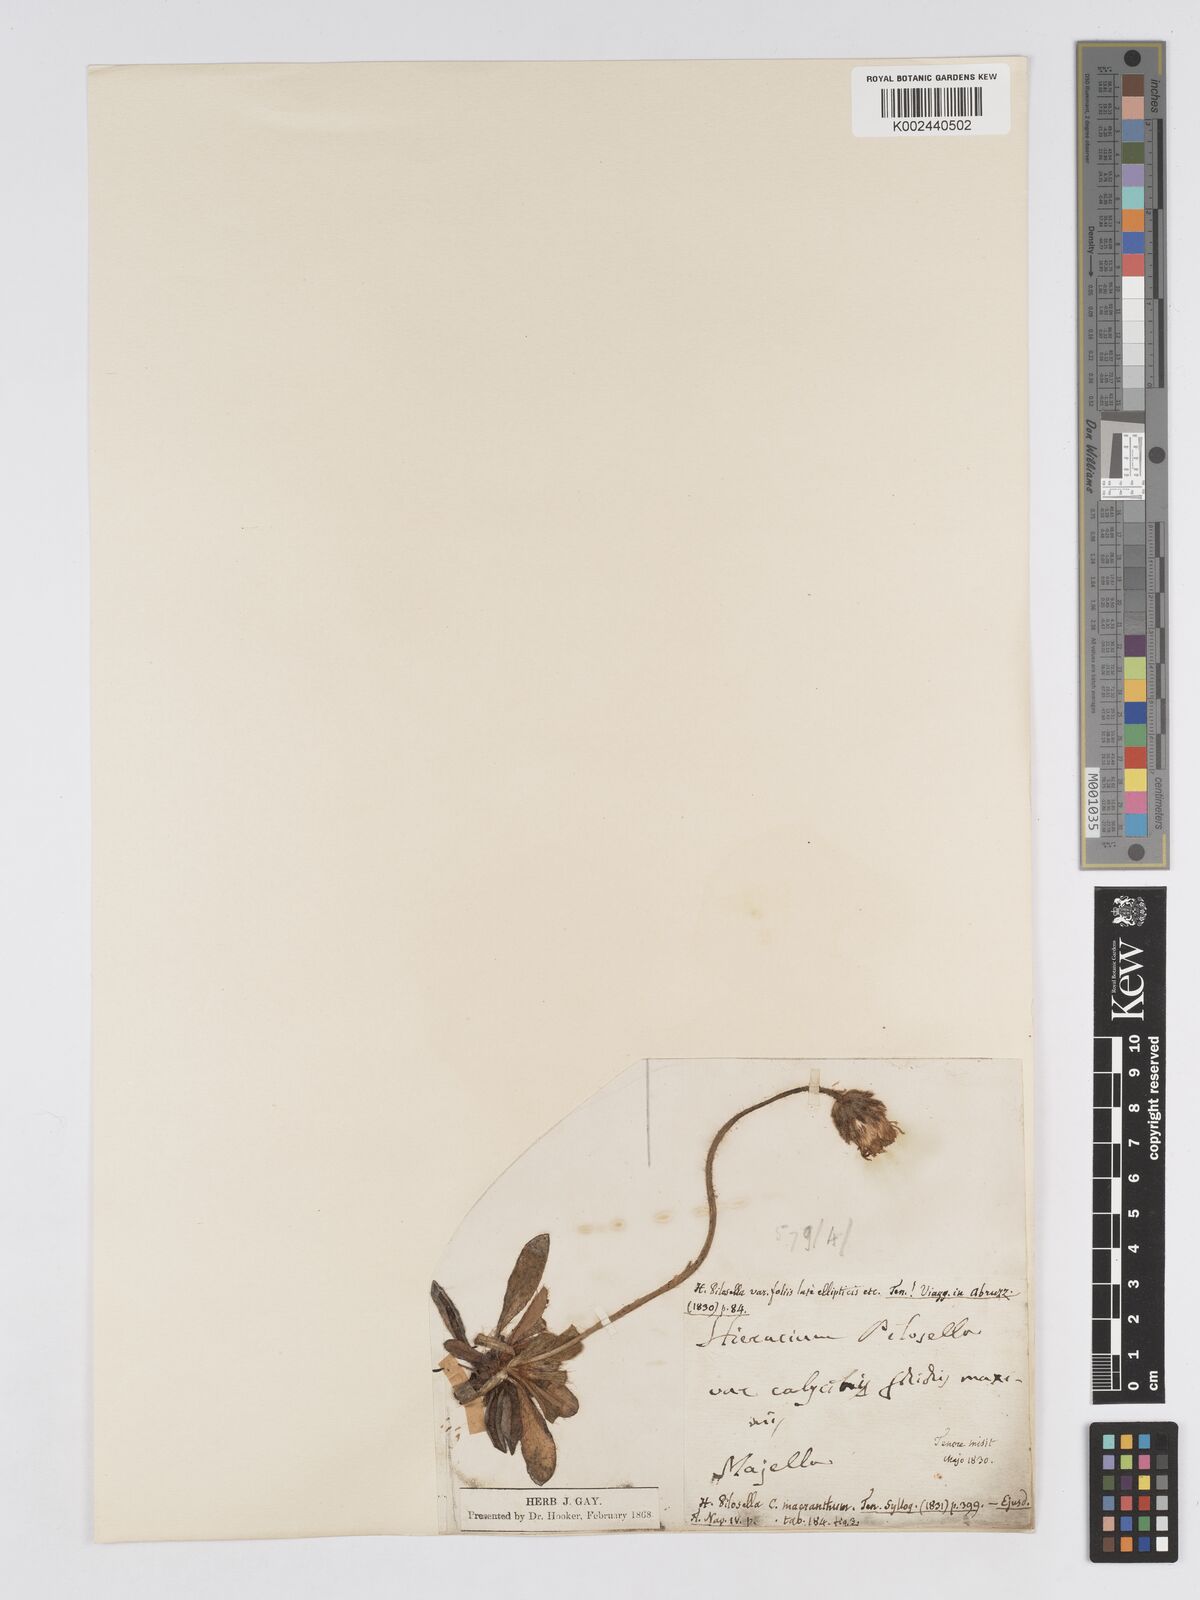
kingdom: Plantae
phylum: Tracheophyta
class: Magnoliopsida
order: Asterales
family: Asteraceae
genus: Pilosella
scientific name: Pilosella pseudopilosella
